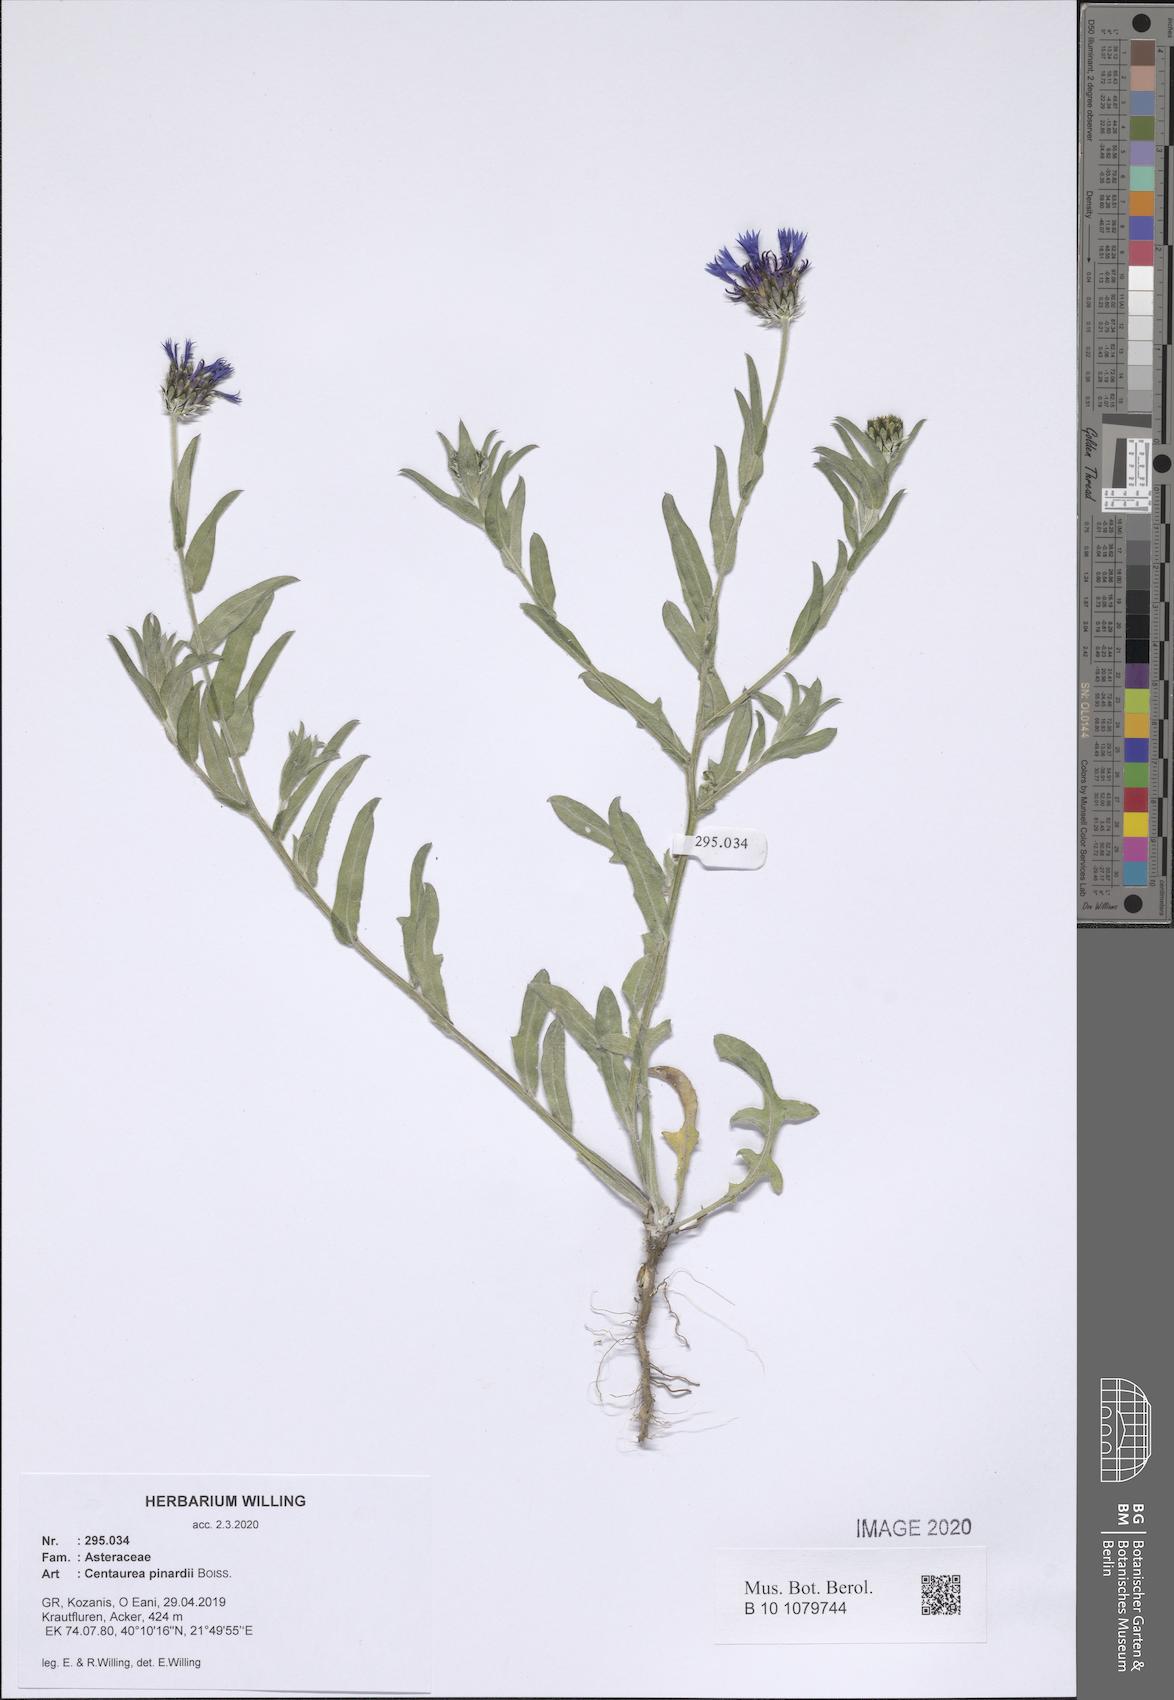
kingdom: Plantae
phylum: Tracheophyta
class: Magnoliopsida
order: Asterales
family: Asteraceae
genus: Centaurea
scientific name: Centaurea pinardii
